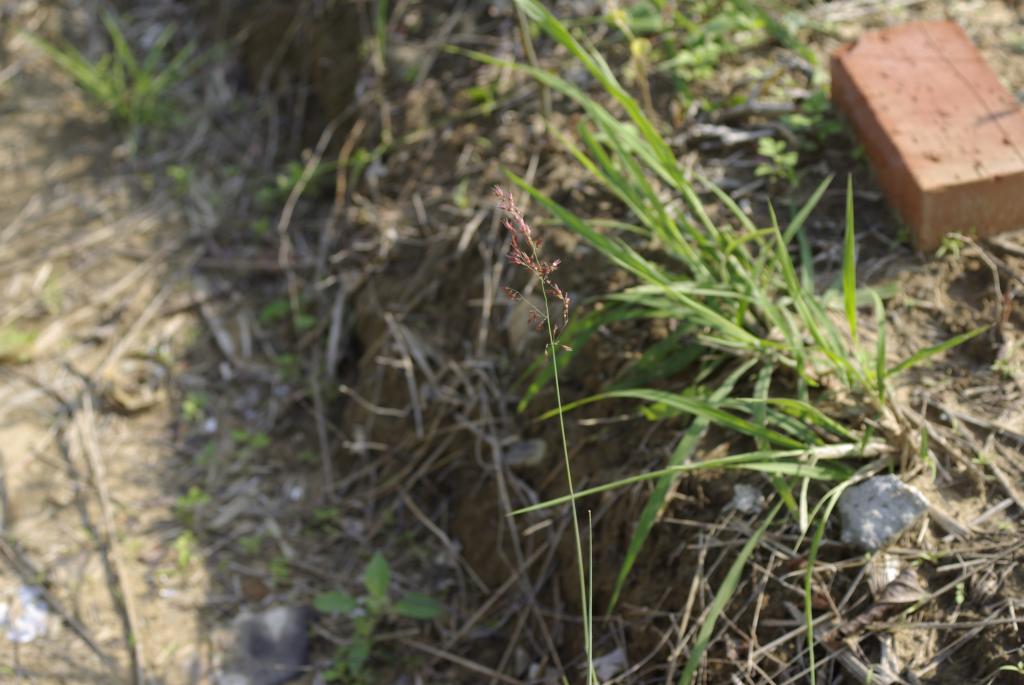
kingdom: Plantae
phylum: Tracheophyta
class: Liliopsida
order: Poales
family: Poaceae
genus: Melinis
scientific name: Melinis repens
